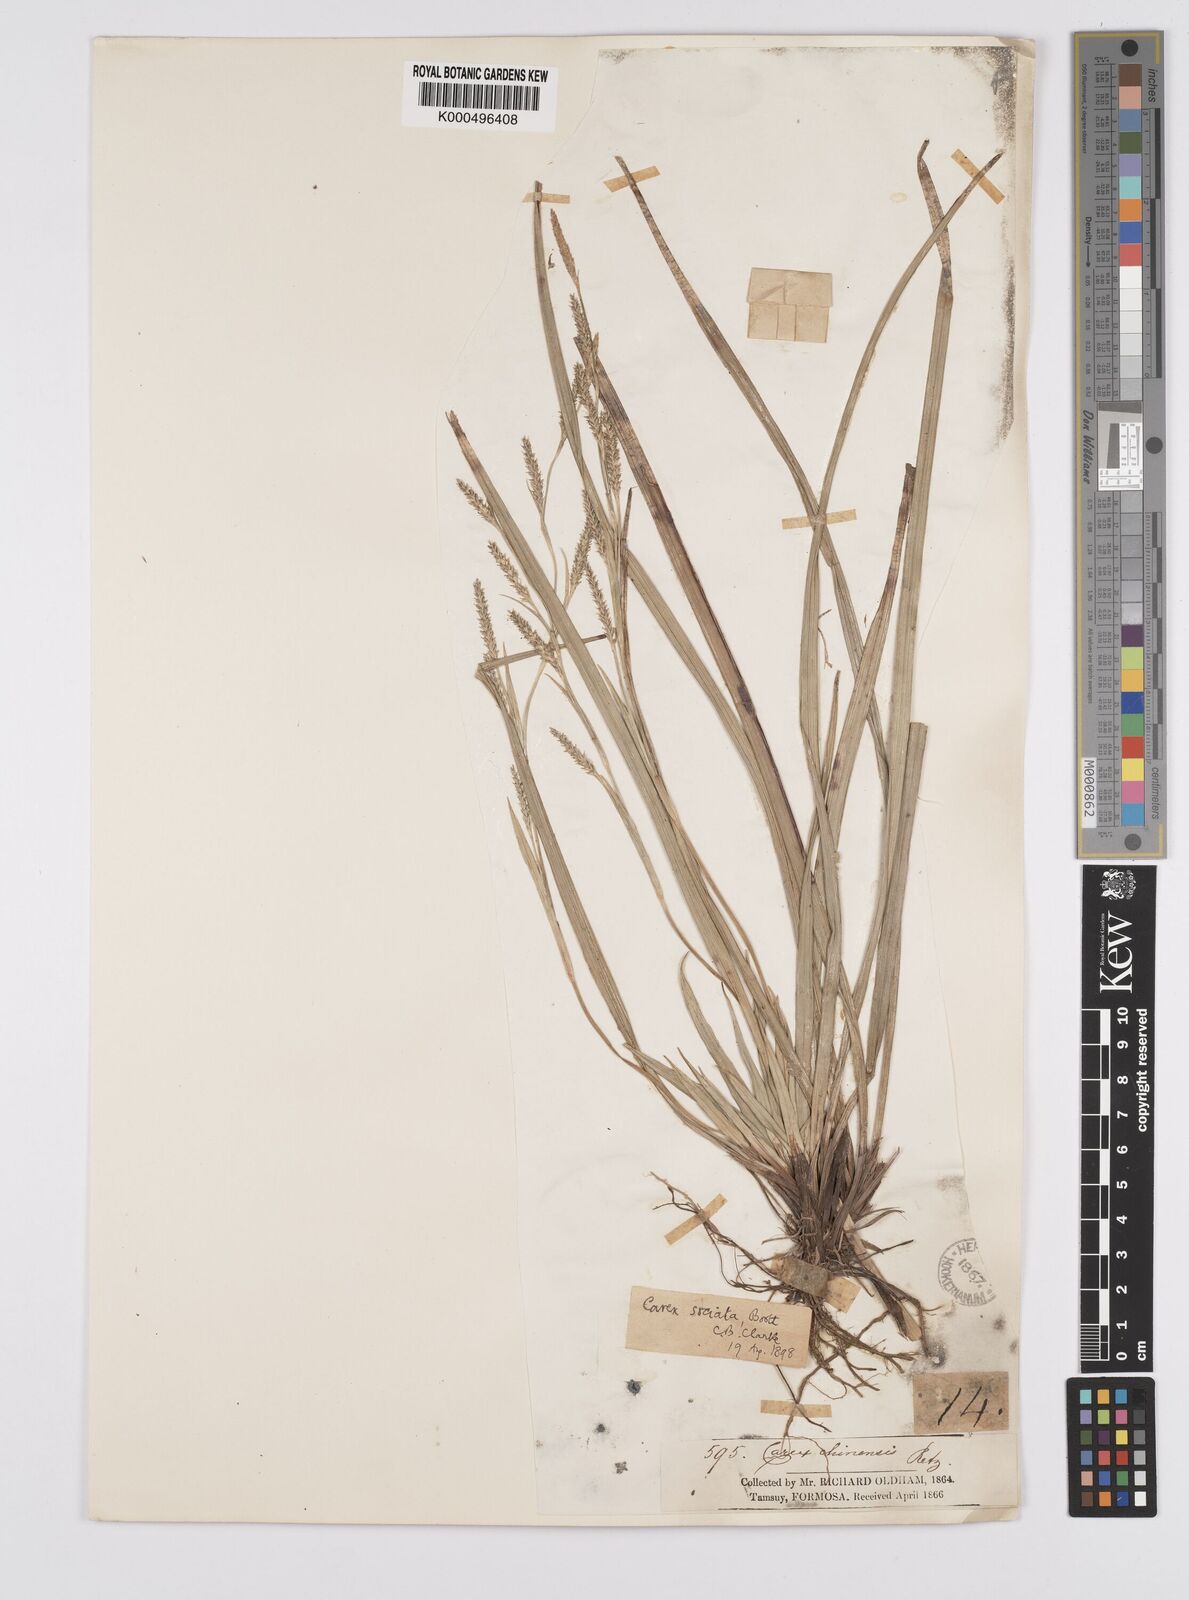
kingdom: Plantae
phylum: Tracheophyta
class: Liliopsida
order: Poales
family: Cyperaceae
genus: Carex
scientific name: Carex chinensis
